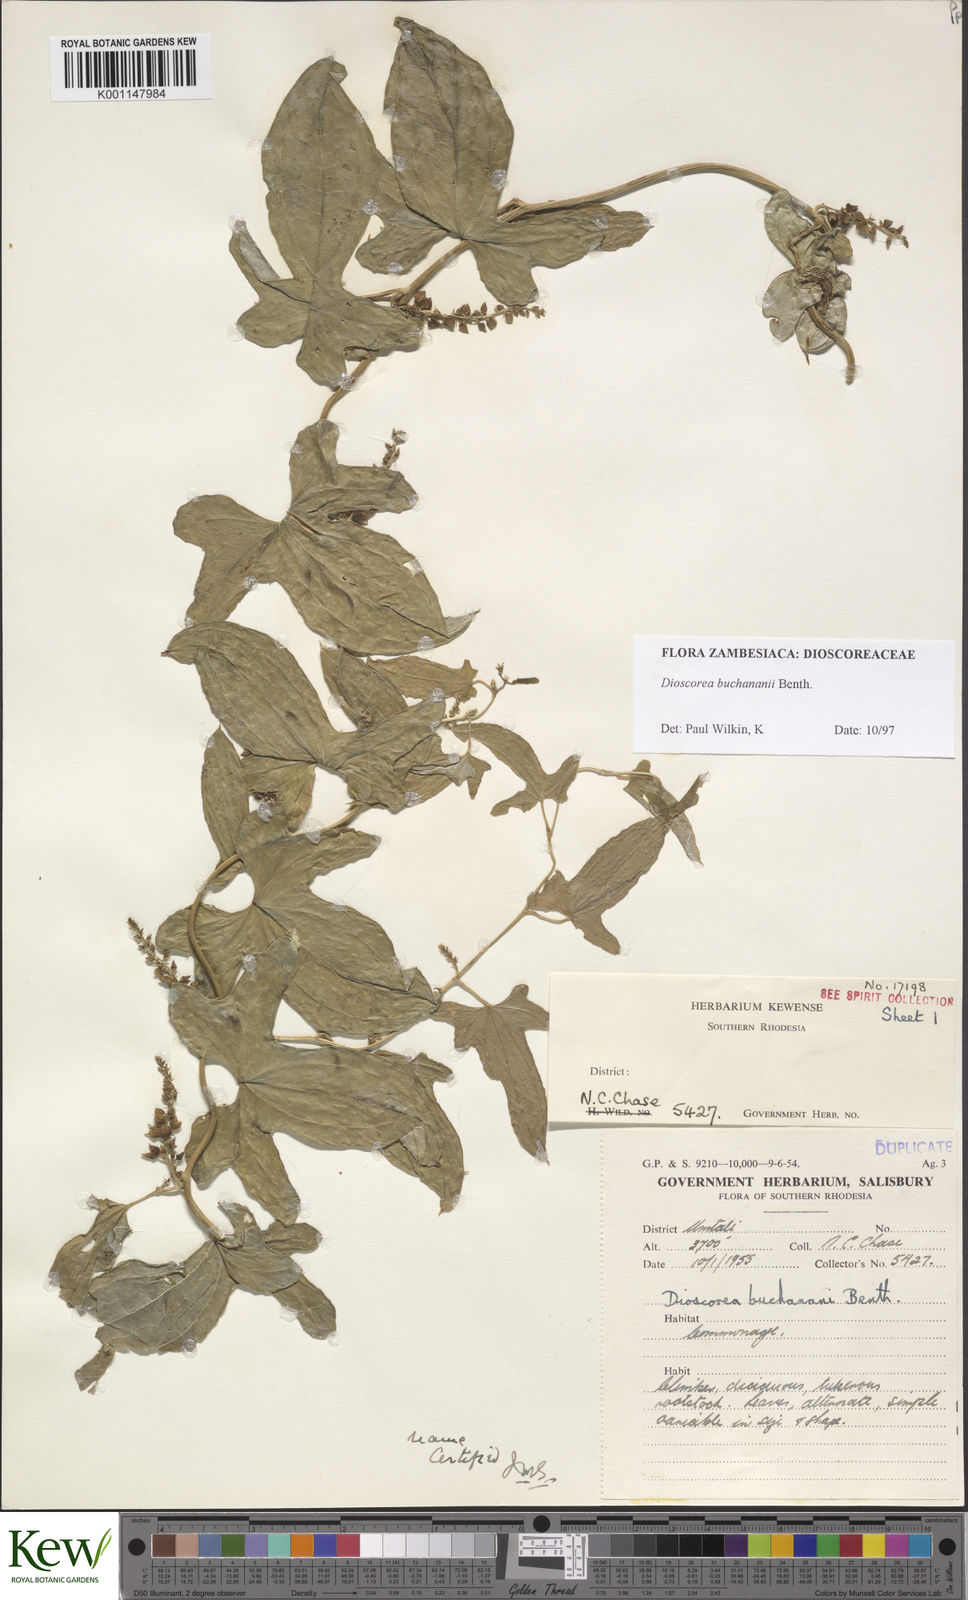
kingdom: Plantae
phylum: Tracheophyta
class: Liliopsida
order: Dioscoreales
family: Dioscoreaceae
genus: Dioscorea
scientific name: Dioscorea buchananii
